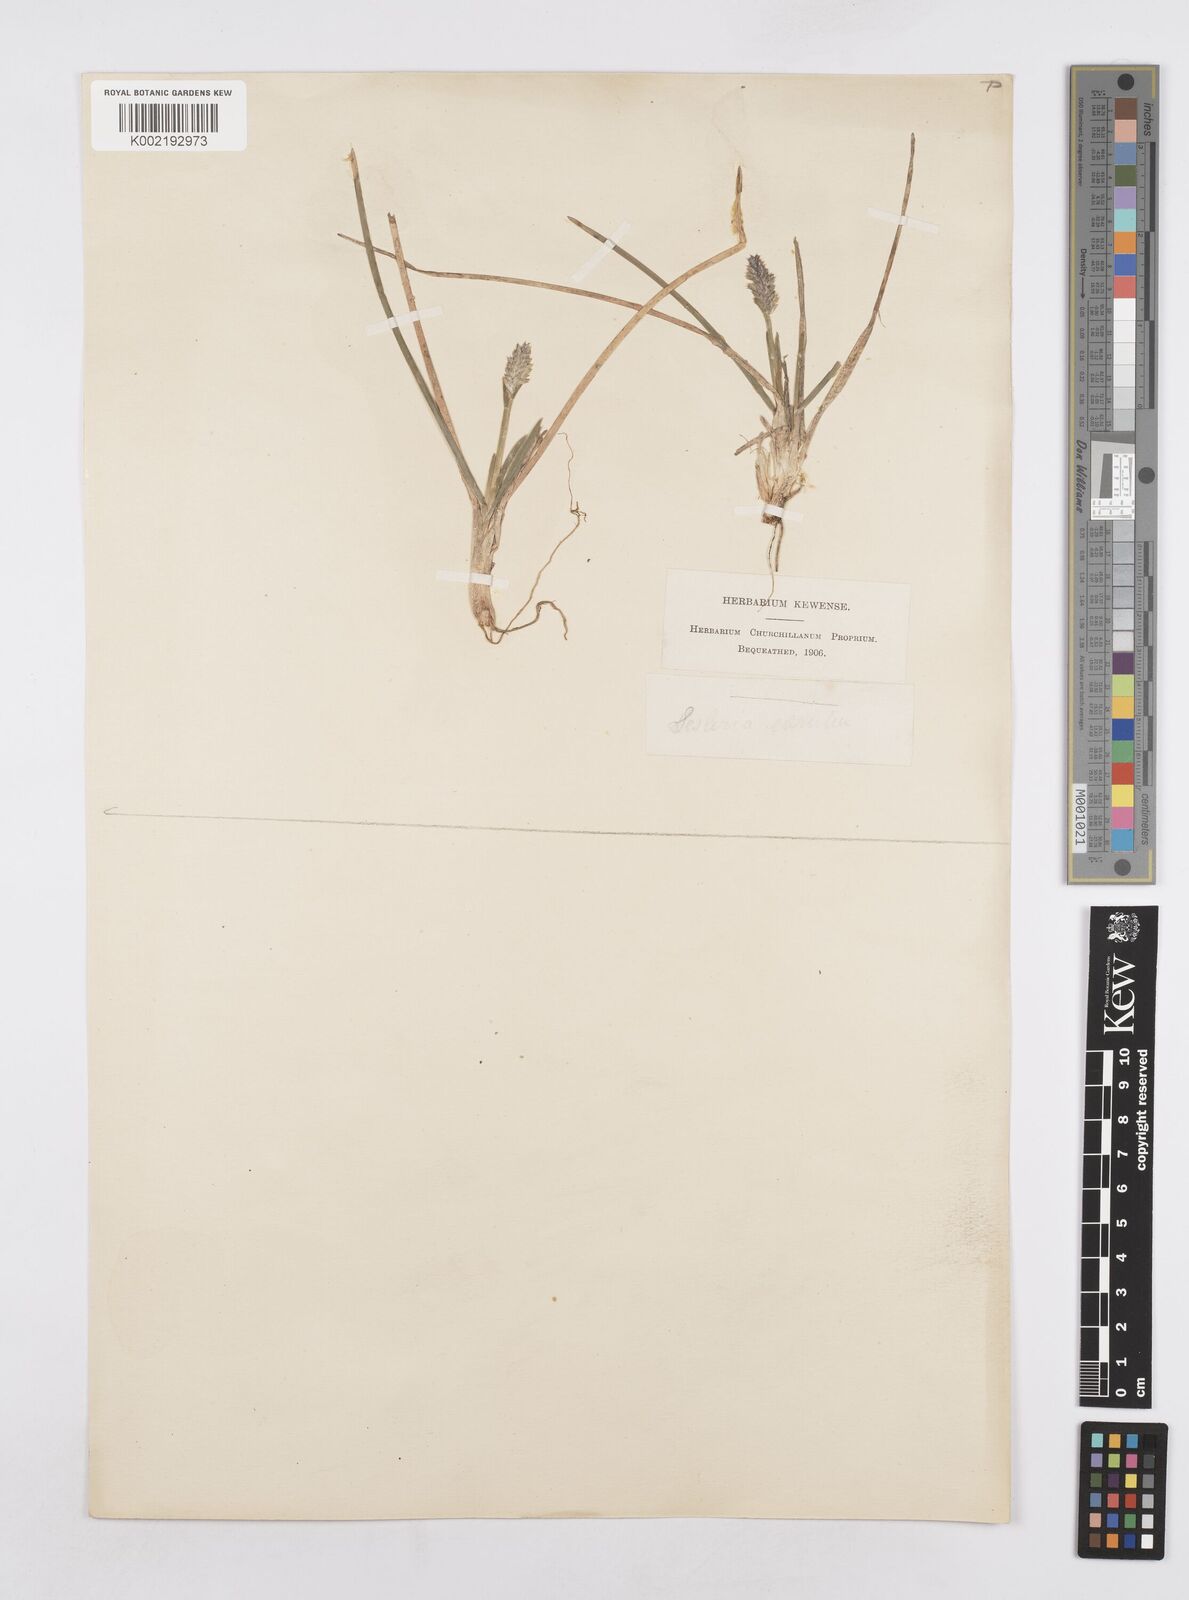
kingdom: Plantae
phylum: Tracheophyta
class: Liliopsida
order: Poales
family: Poaceae
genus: Sesleria
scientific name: Sesleria caerulea
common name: Blue moor-grass
